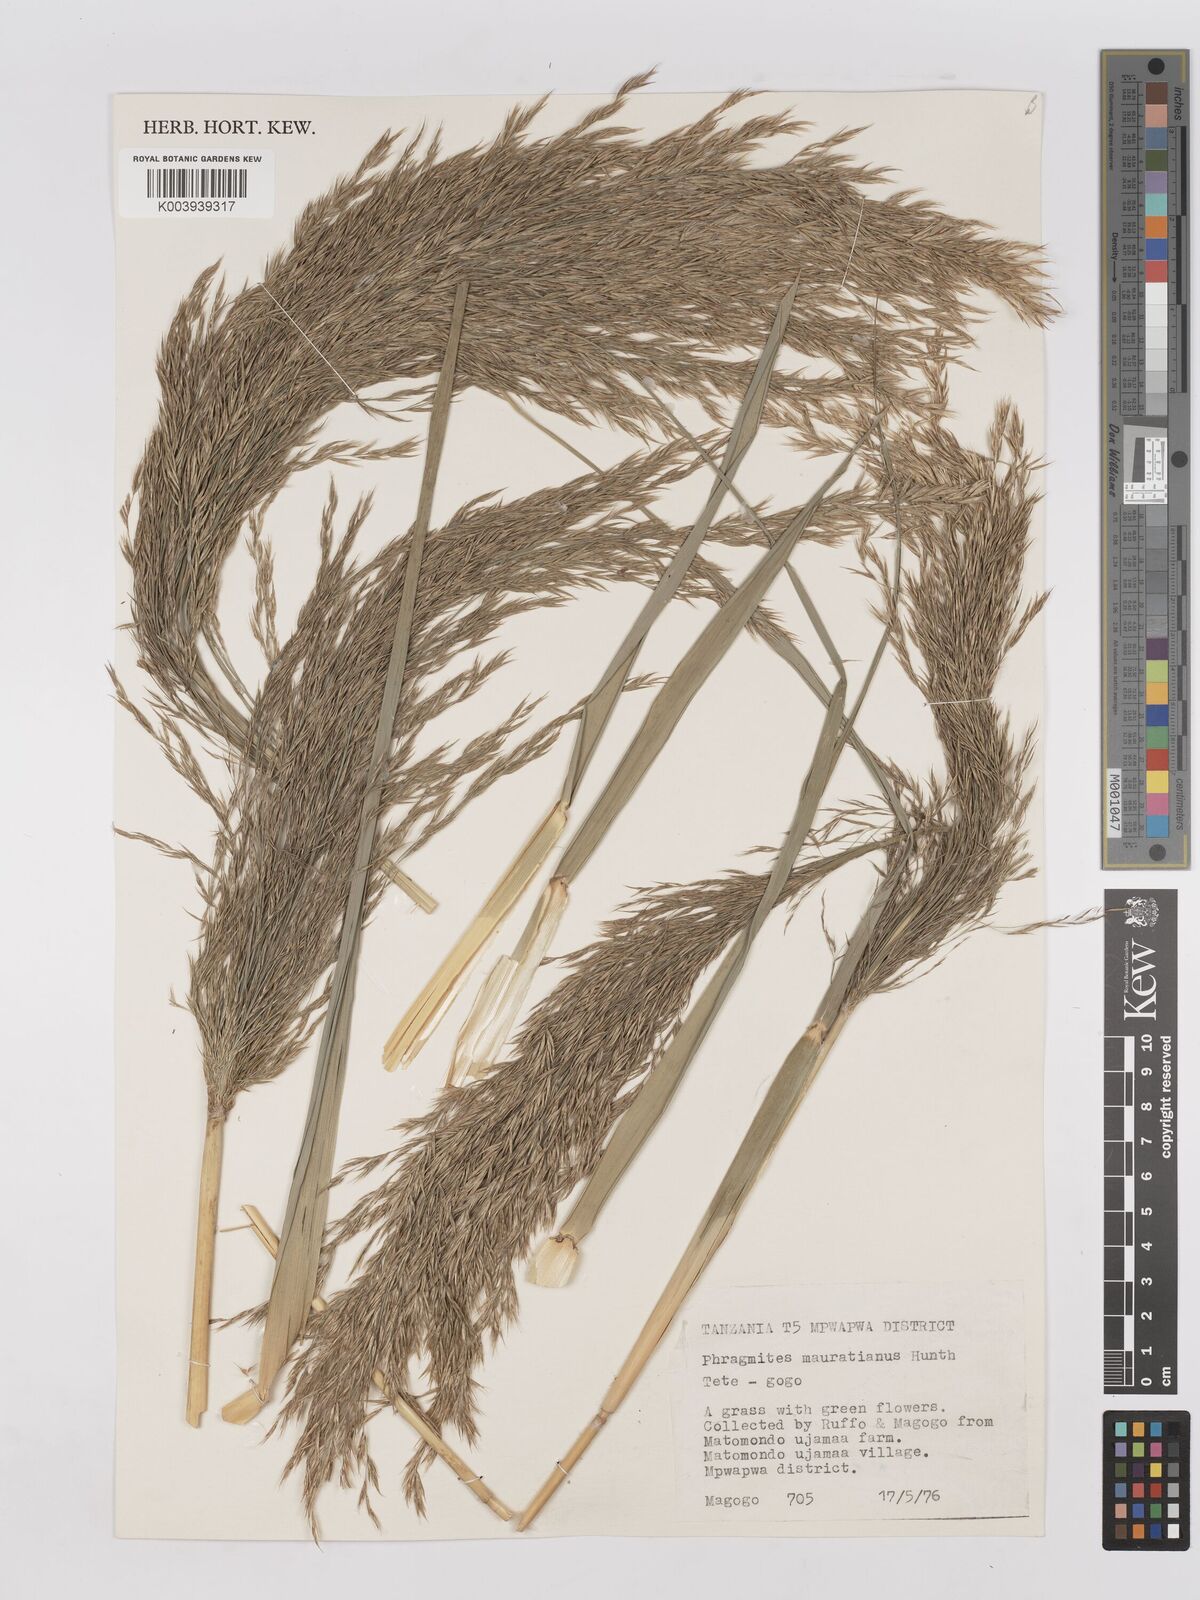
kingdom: Plantae
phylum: Tracheophyta
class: Liliopsida
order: Poales
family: Poaceae
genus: Phragmites
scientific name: Phragmites mauritianus
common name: Reed grass
